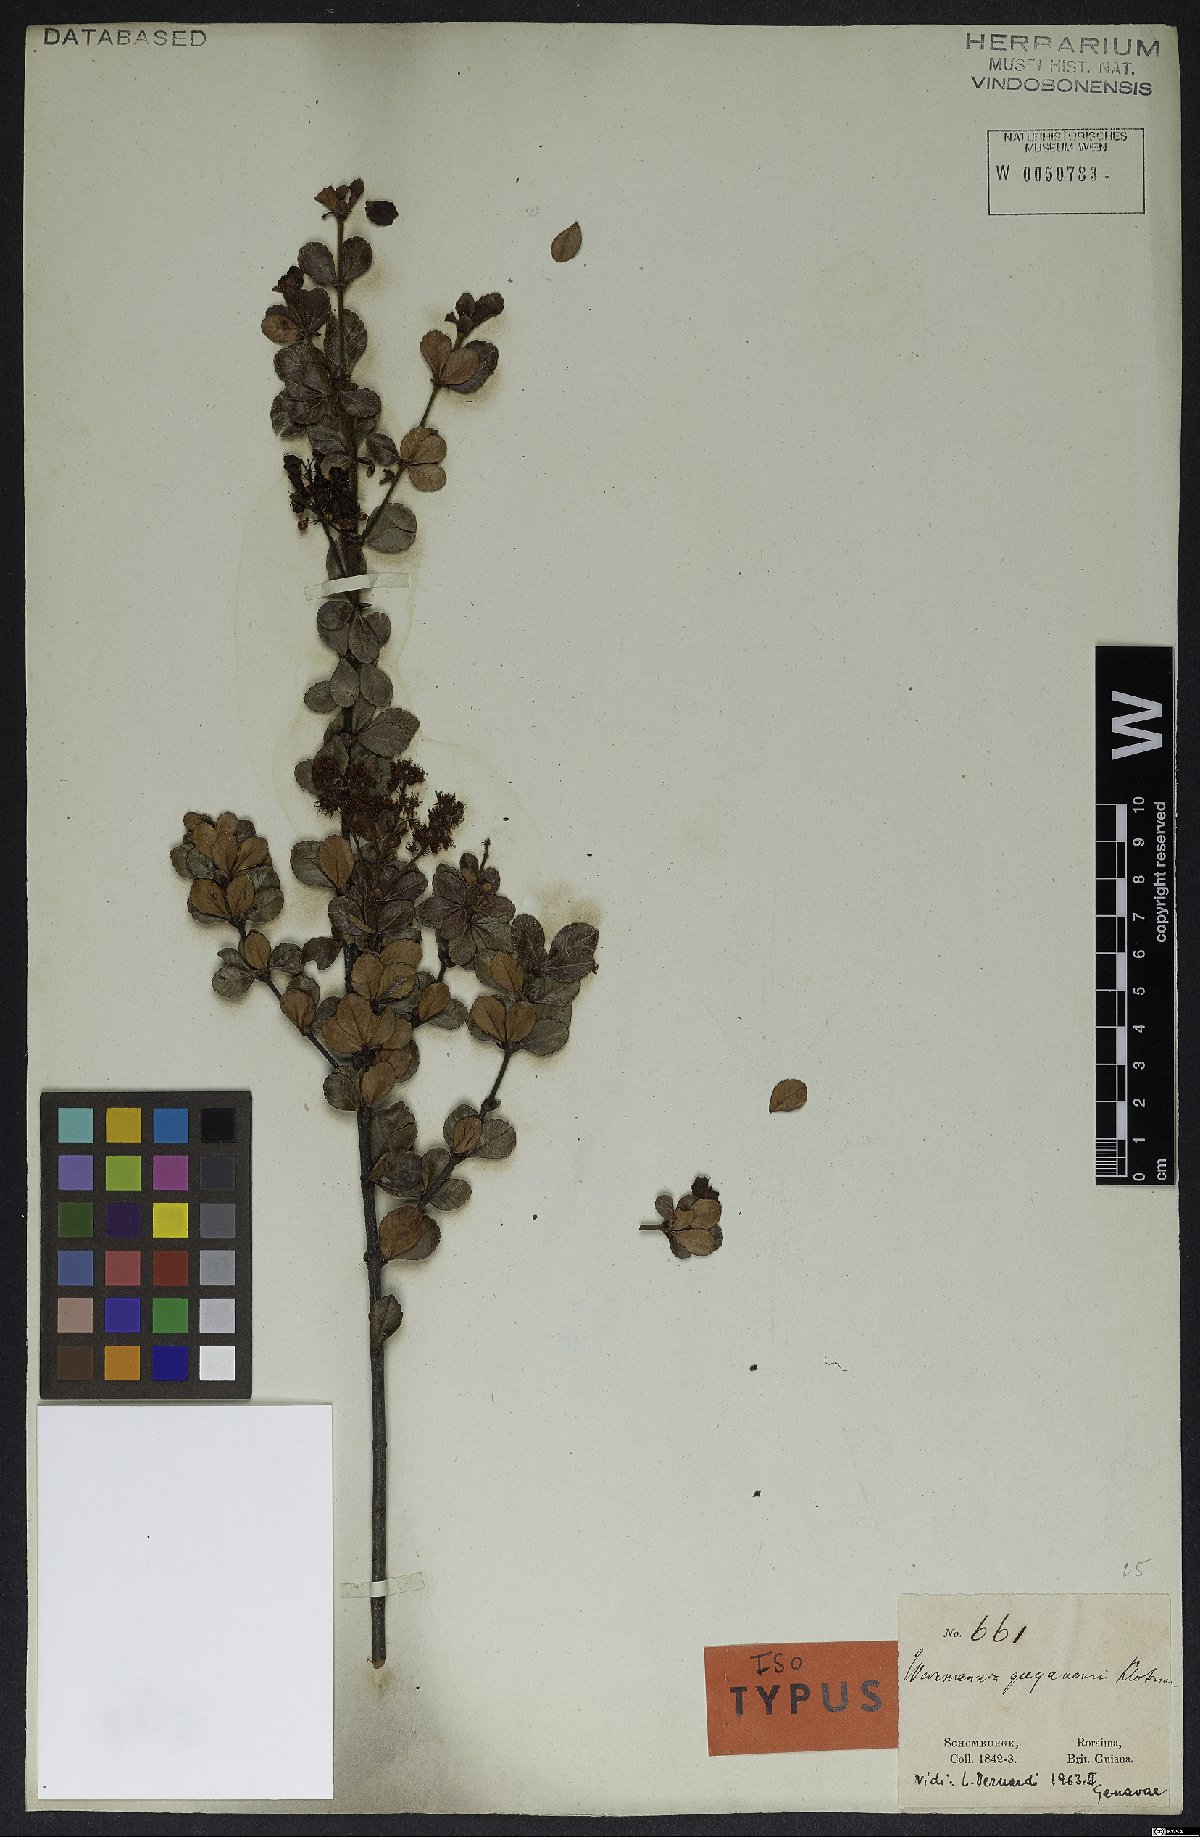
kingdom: Plantae
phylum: Tracheophyta
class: Magnoliopsida
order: Oxalidales
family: Cunoniaceae
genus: Weinmannia
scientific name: Weinmannia guyanensis
